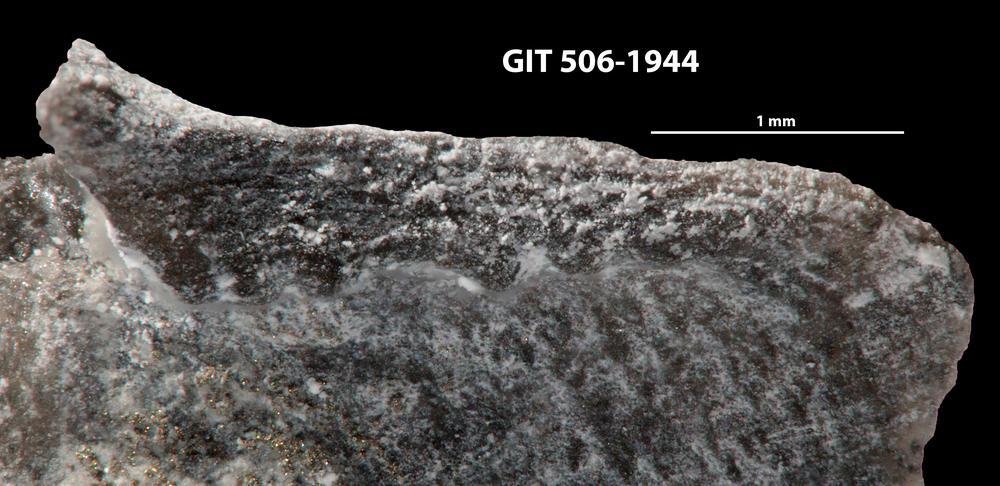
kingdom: Animalia
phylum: Brachiopoda
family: Oldhaminidae
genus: Eoplectodonta
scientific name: Eoplectodonta penkillensis
